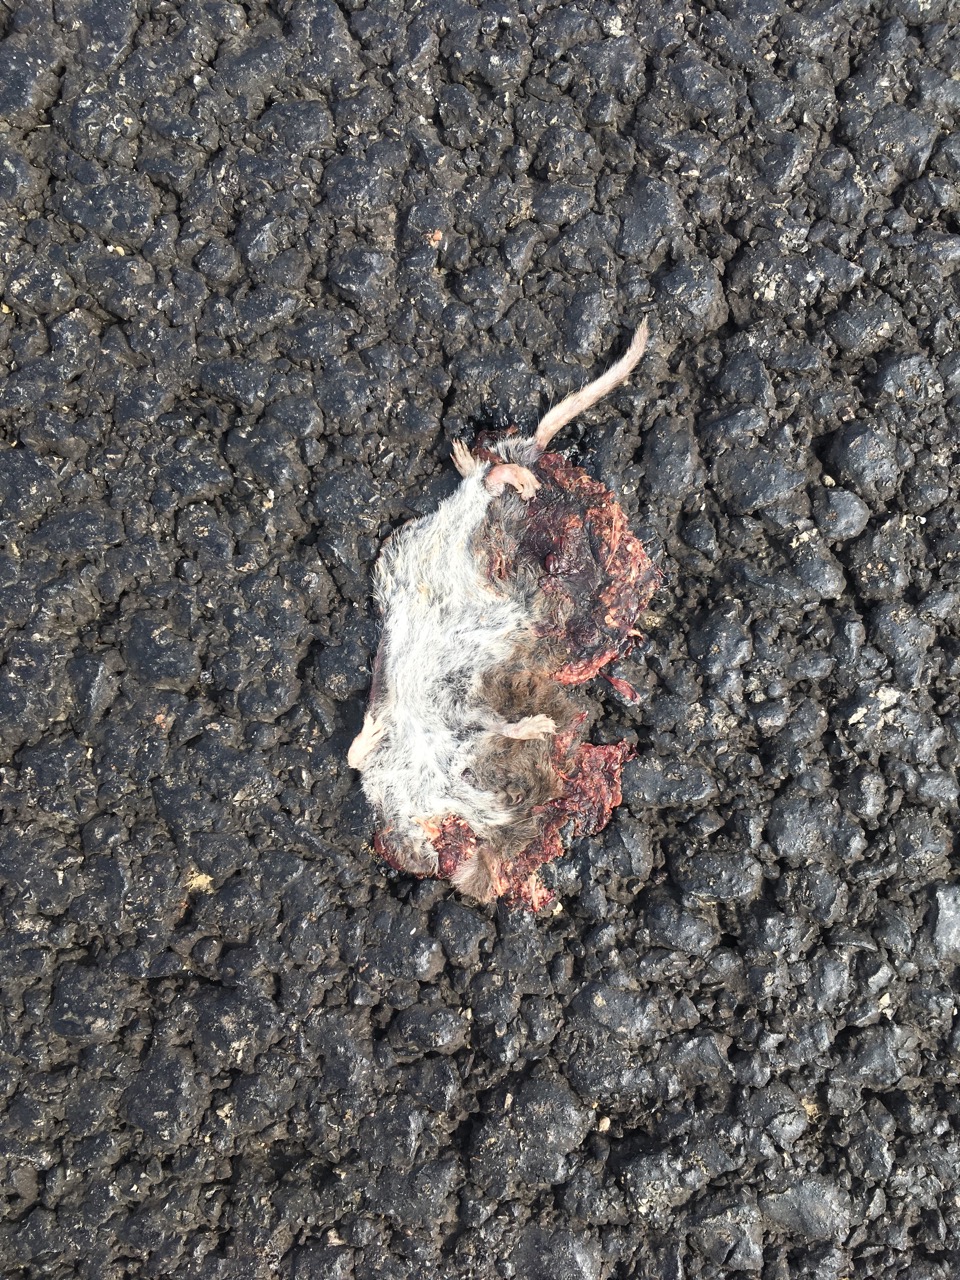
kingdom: Animalia
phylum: Chordata
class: Mammalia
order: Soricomorpha
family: Soricidae
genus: Crocidura
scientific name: Crocidura
